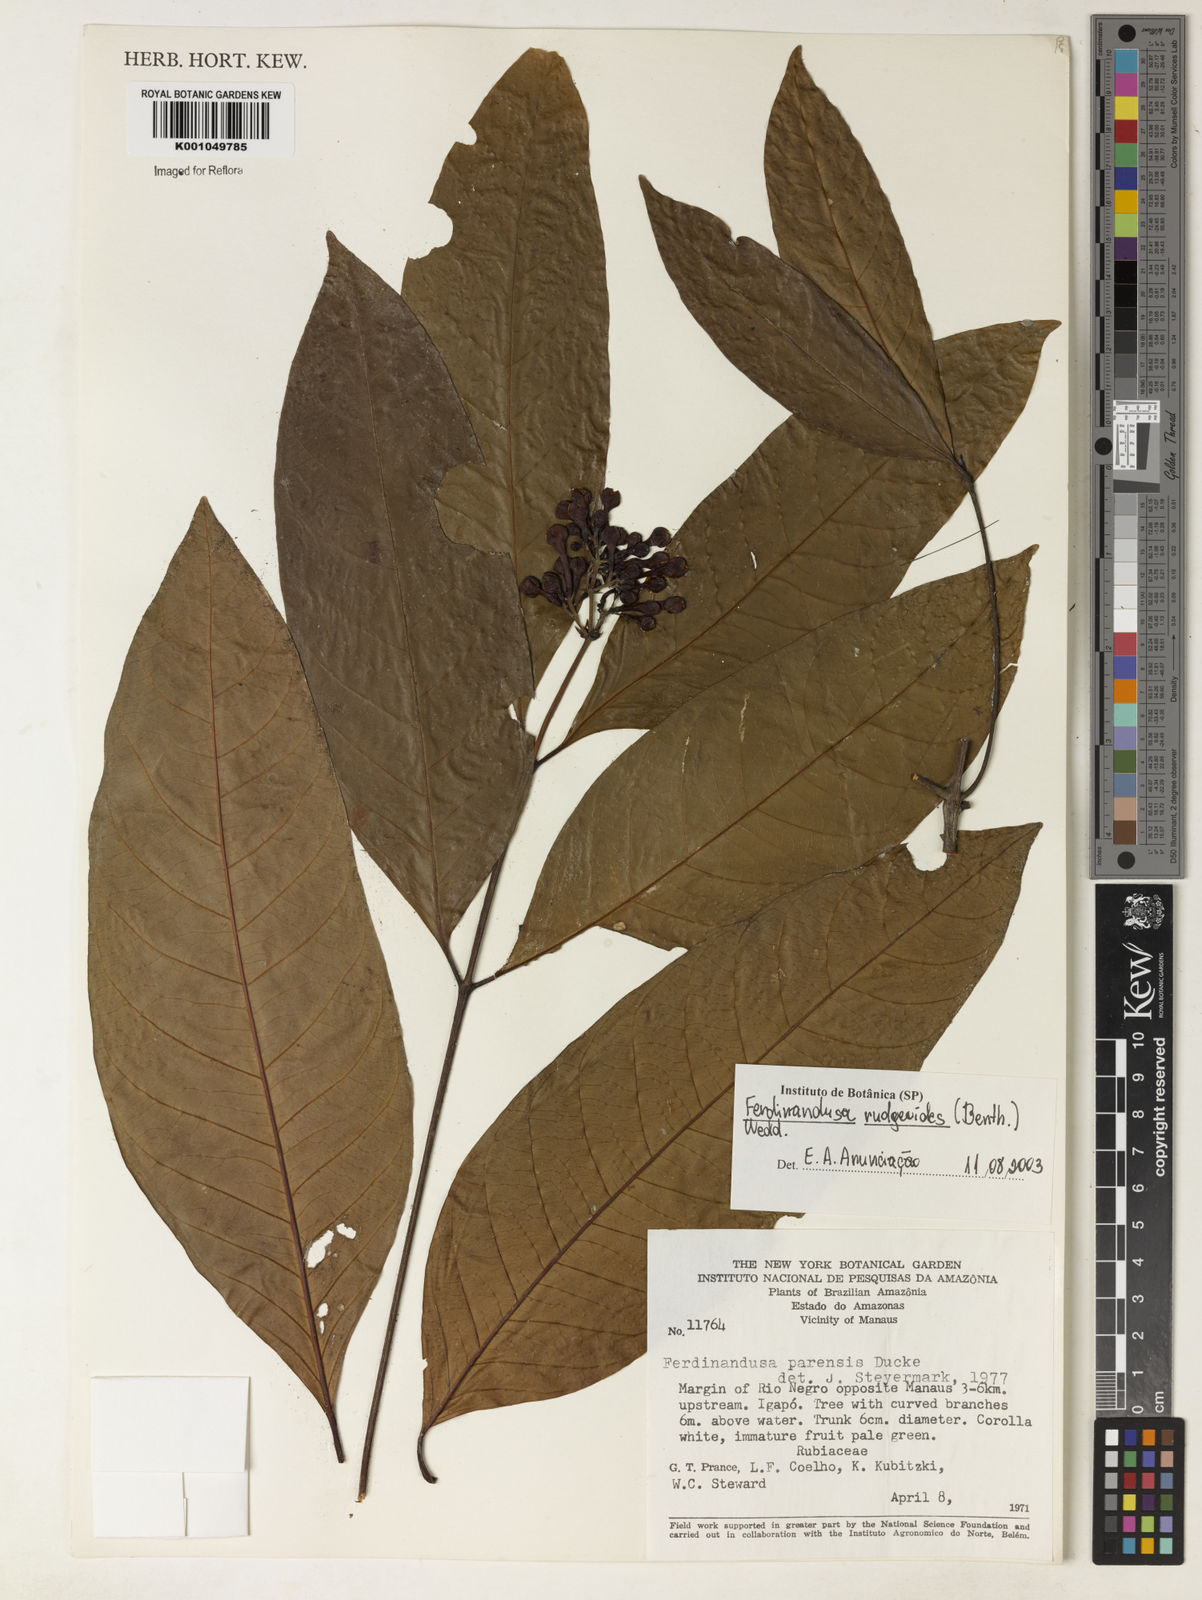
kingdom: Plantae
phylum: Tracheophyta
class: Magnoliopsida
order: Gentianales
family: Rubiaceae
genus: Ferdinandusa
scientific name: Ferdinandusa rudgeoides
